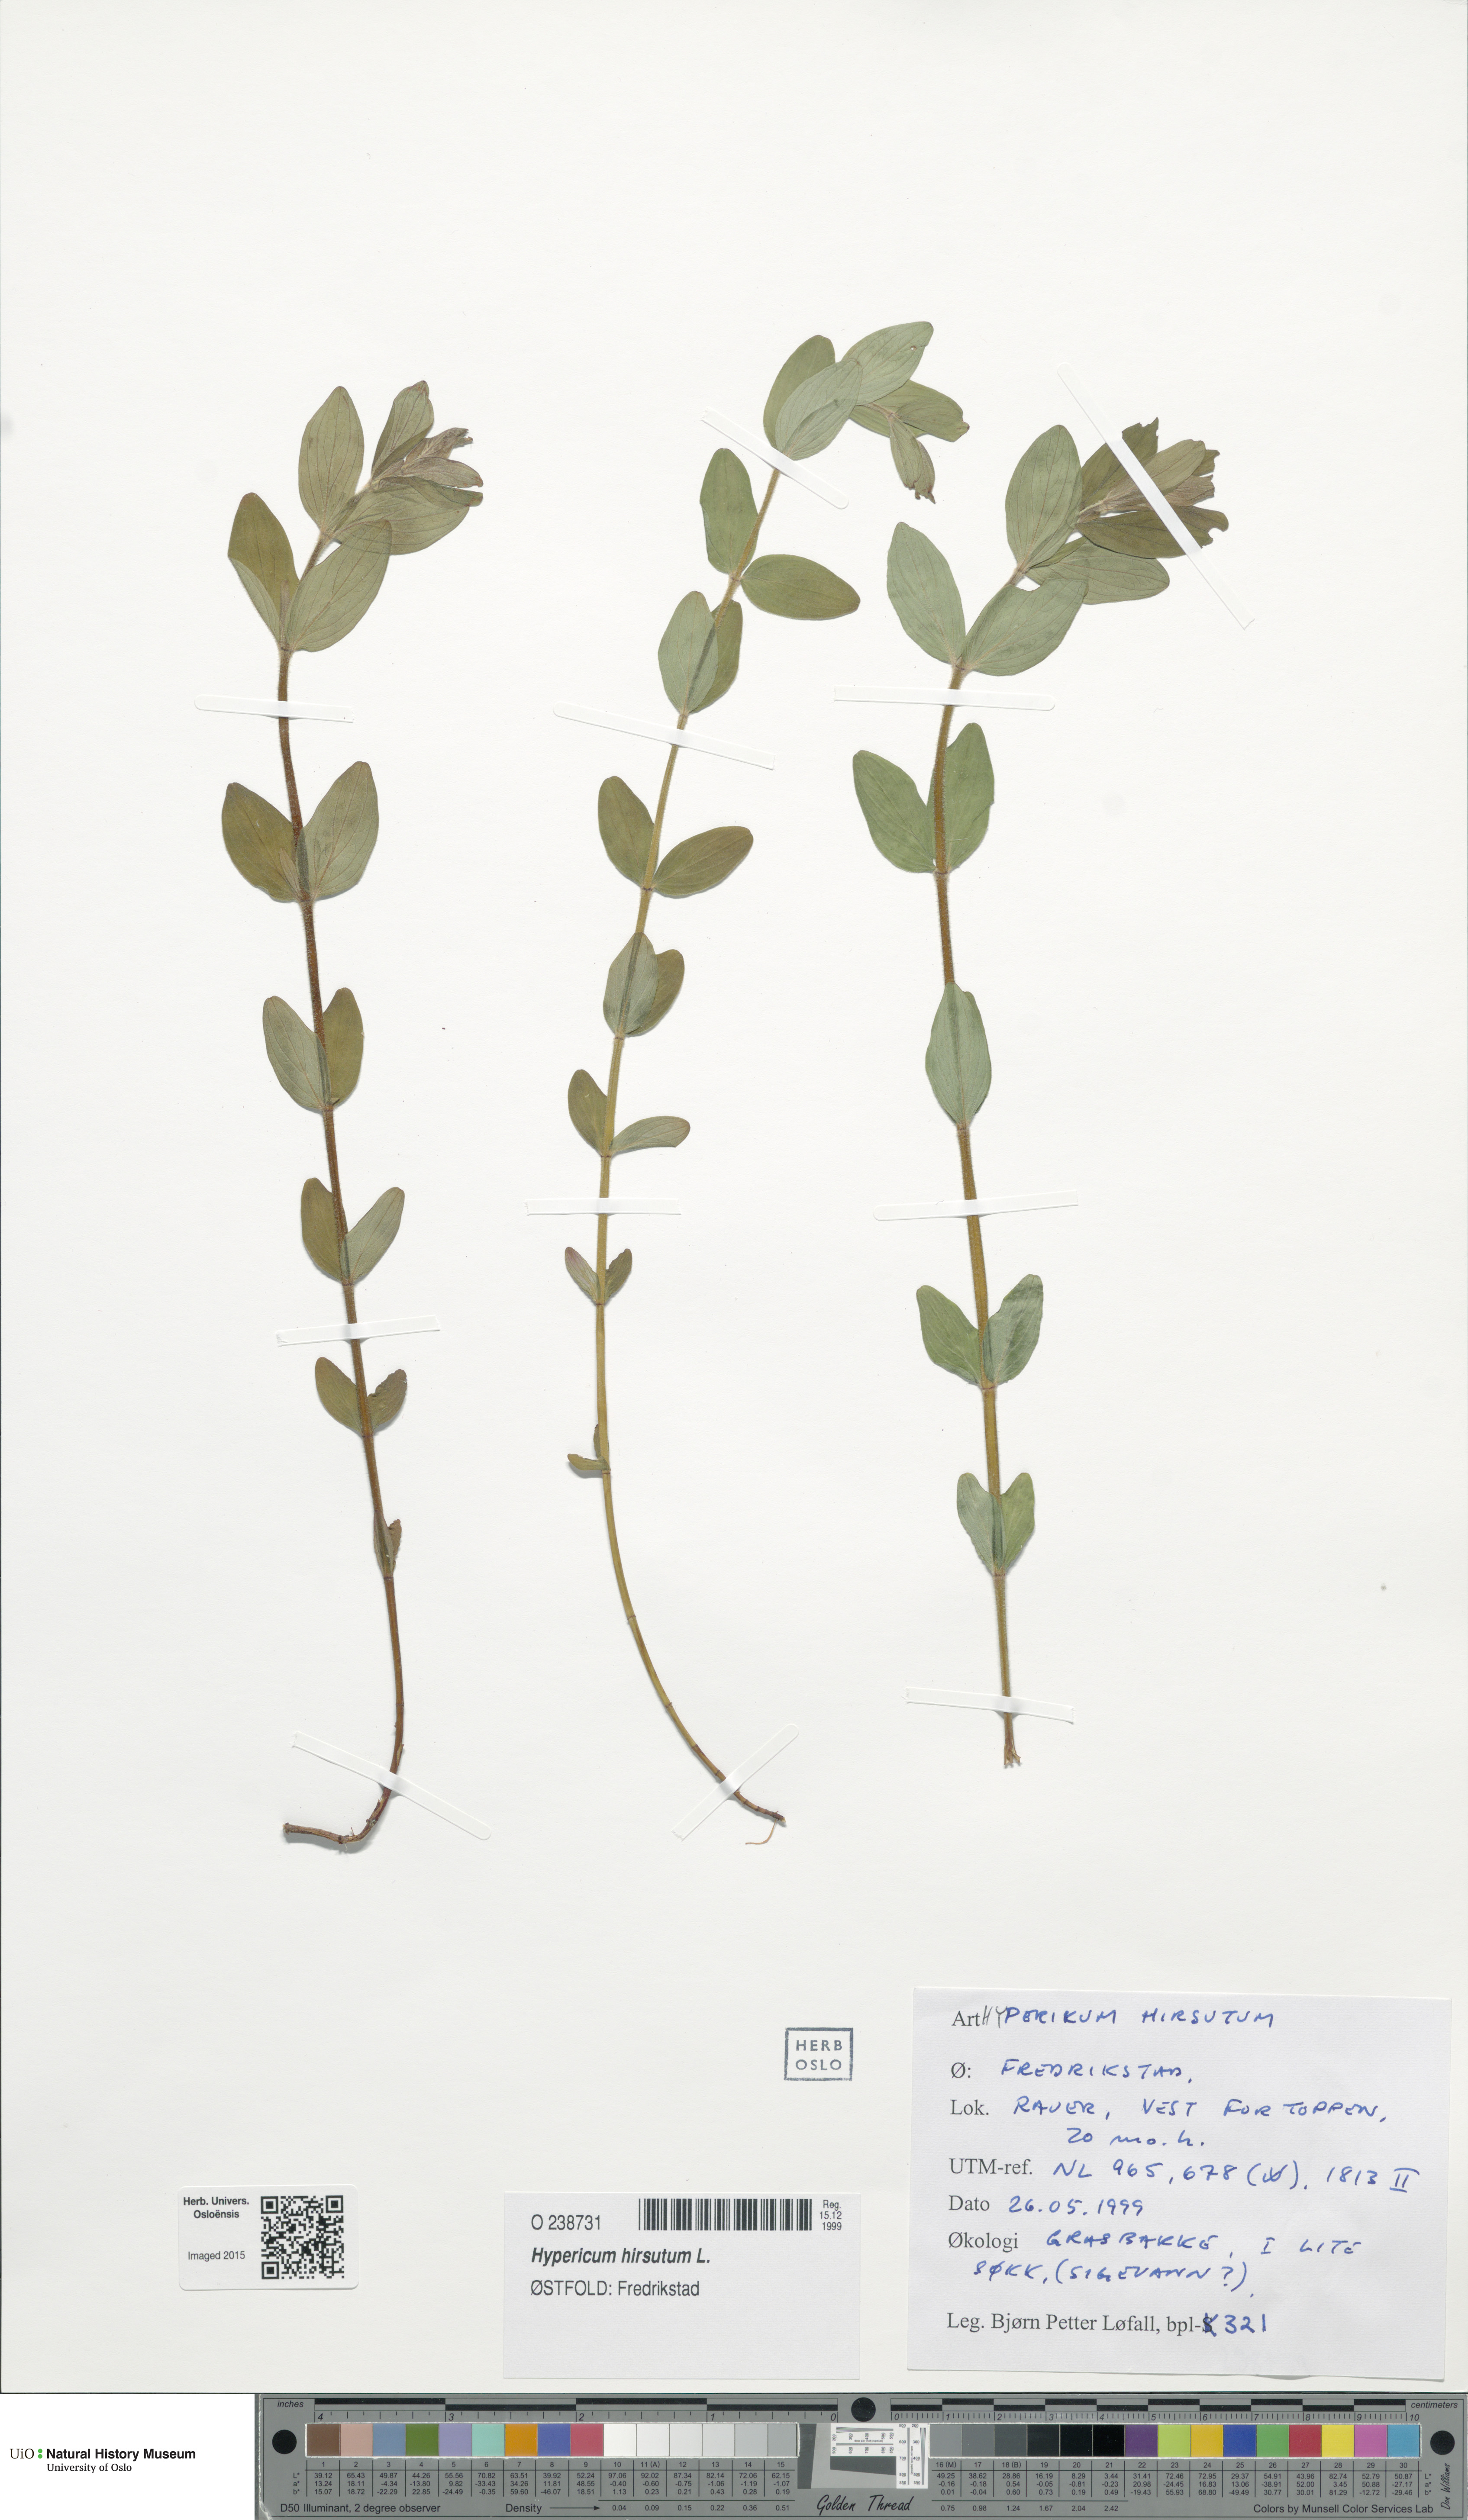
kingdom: Plantae
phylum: Tracheophyta
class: Magnoliopsida
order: Malpighiales
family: Hypericaceae
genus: Hypericum
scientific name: Hypericum hirsutum
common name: Hairy st. john's-wort
